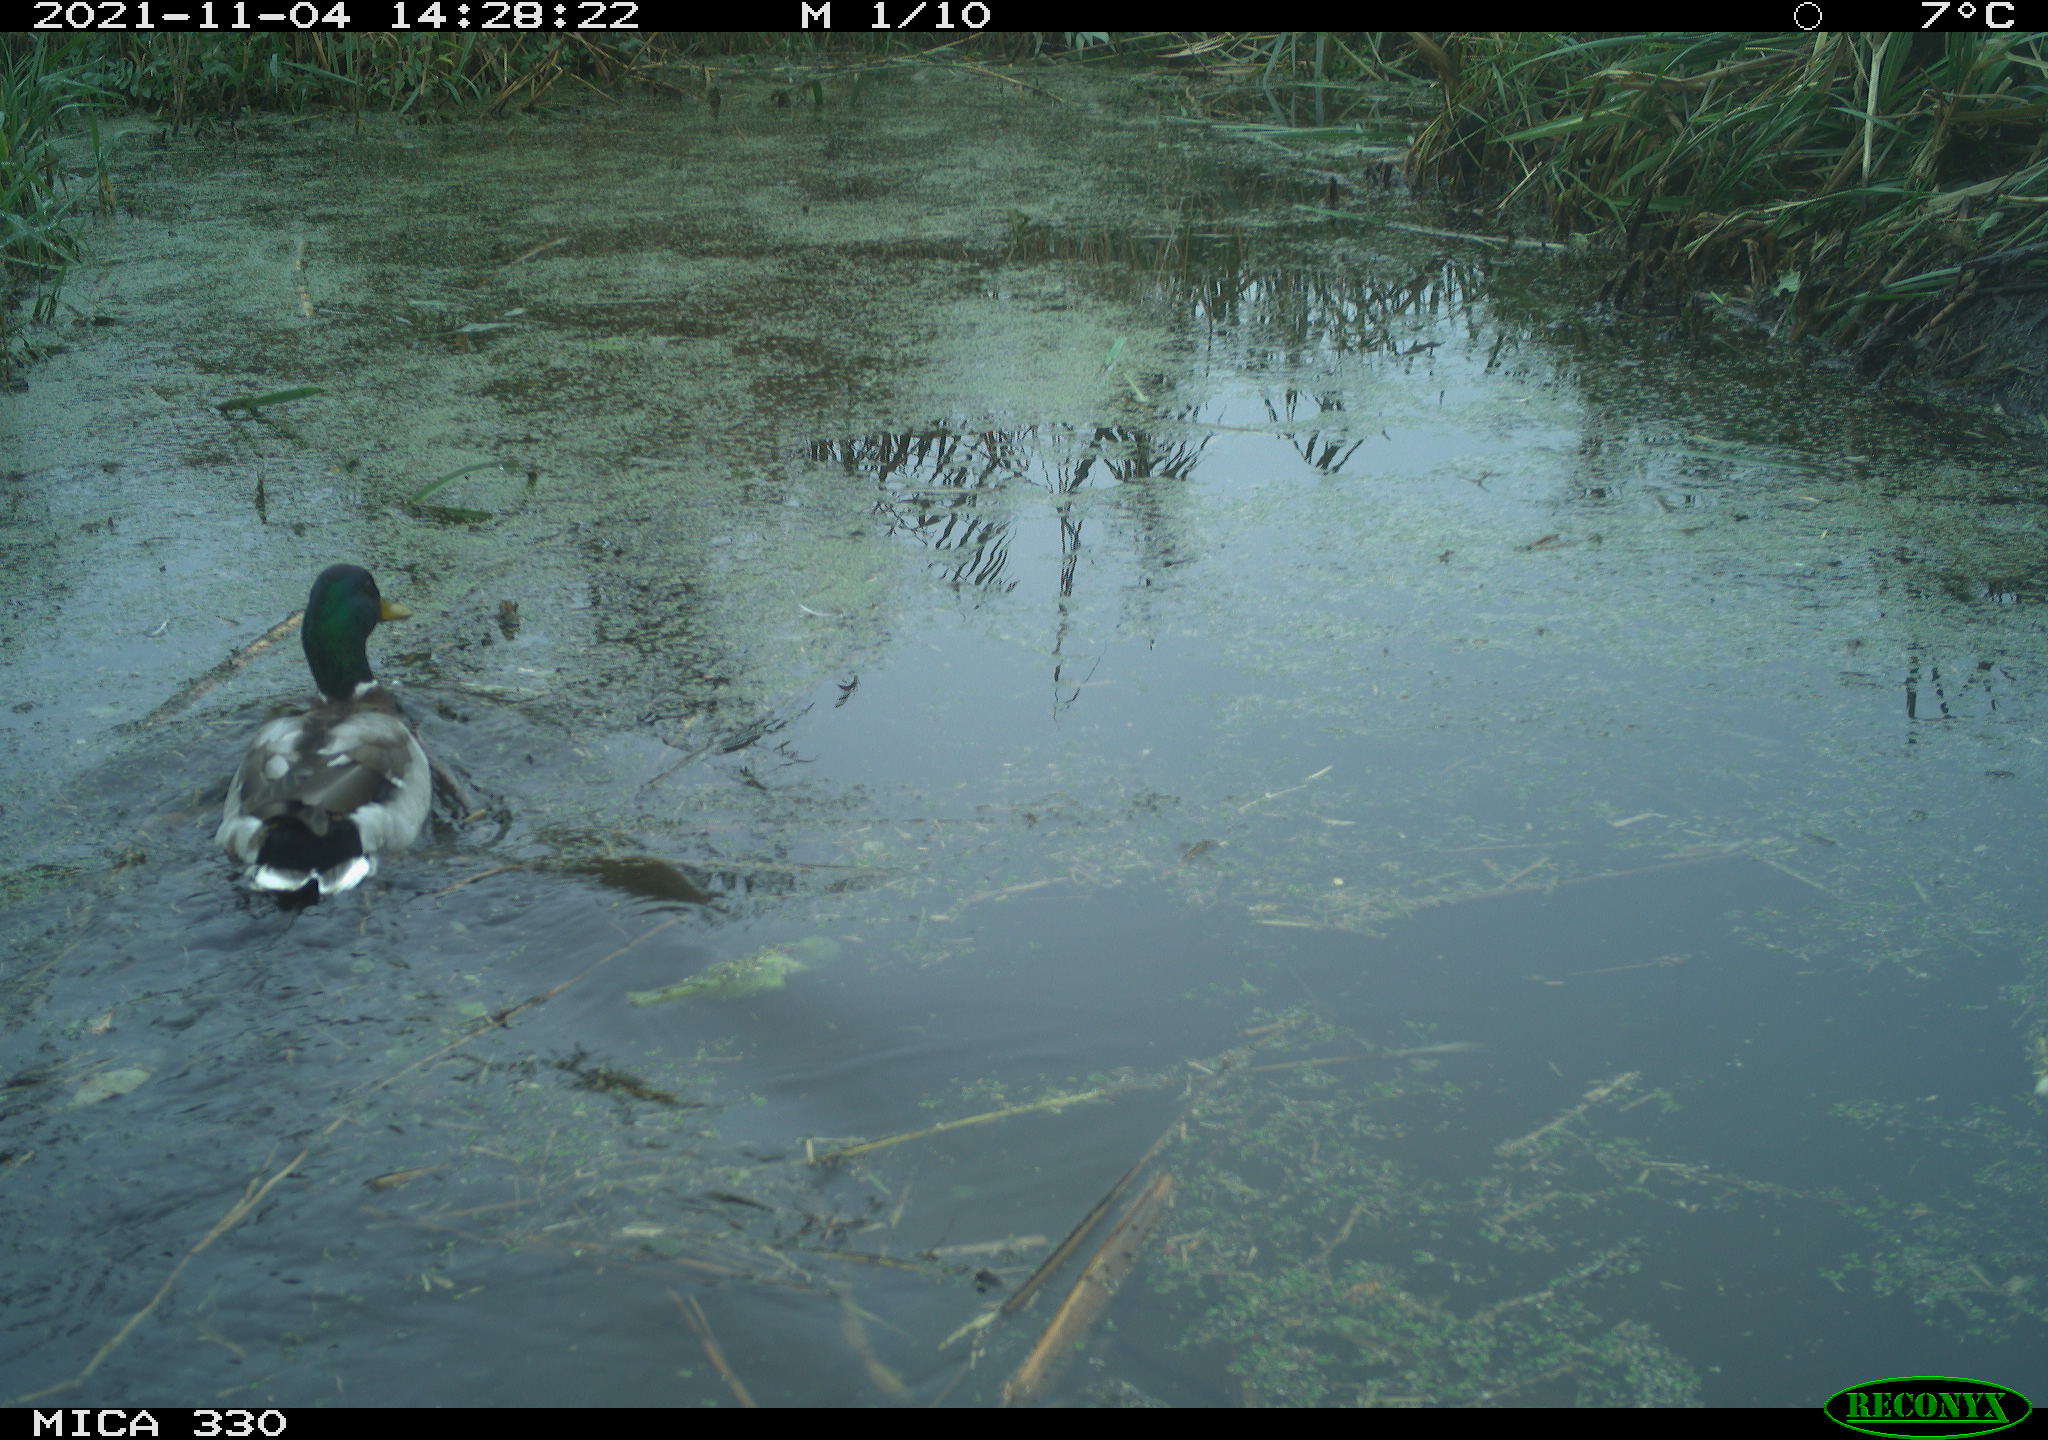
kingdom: Animalia
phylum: Chordata
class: Aves
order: Anseriformes
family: Anatidae
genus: Anas
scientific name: Anas platyrhynchos
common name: Mallard
